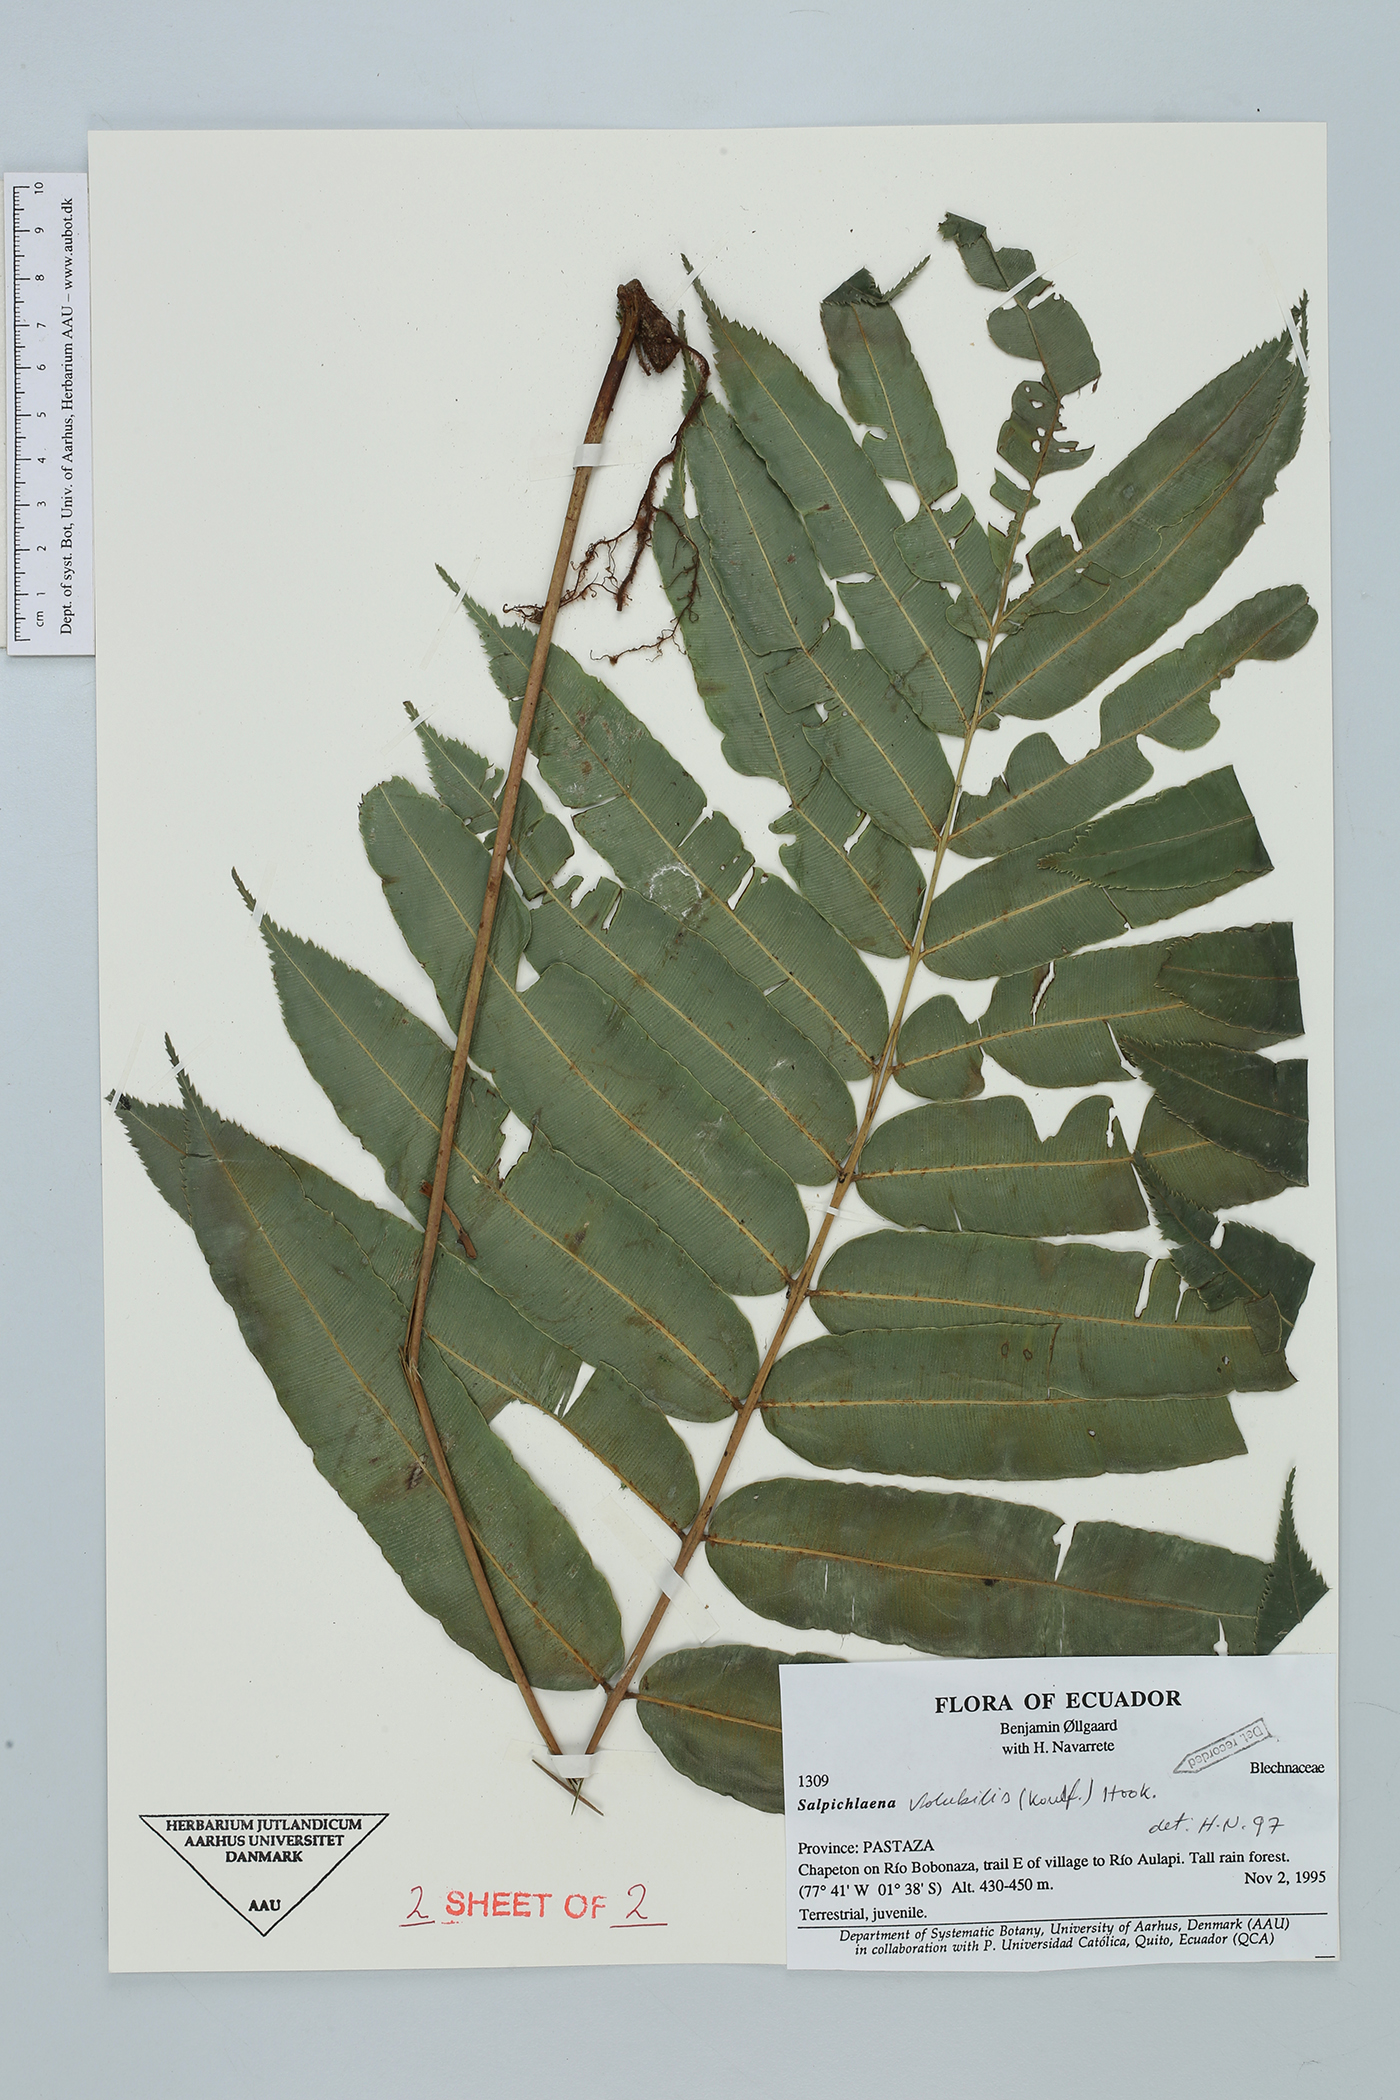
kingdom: Plantae
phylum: Tracheophyta
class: Polypodiopsida
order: Polypodiales
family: Blechnaceae
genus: Salpichlaena
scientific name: Salpichlaena volubilis
